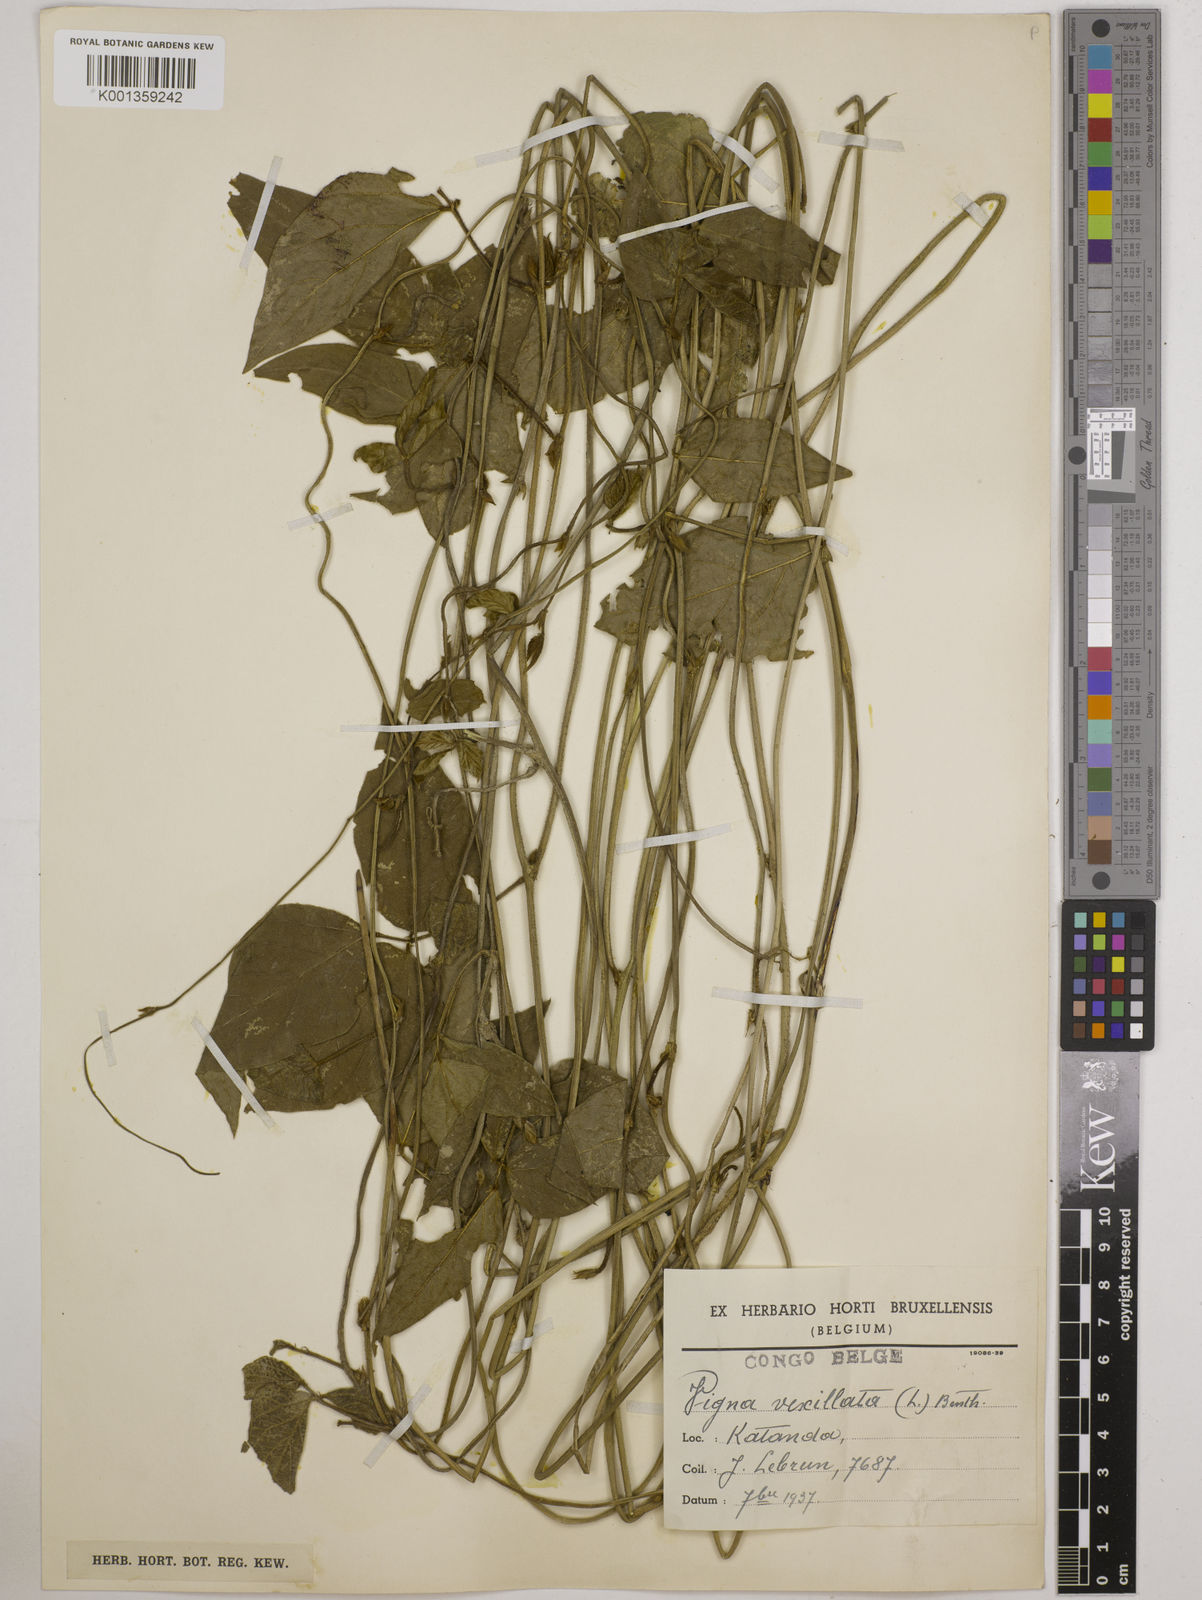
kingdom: Plantae
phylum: Tracheophyta
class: Magnoliopsida
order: Fabales
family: Fabaceae
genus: Vigna
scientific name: Vigna vexillata
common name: Zombi pea
